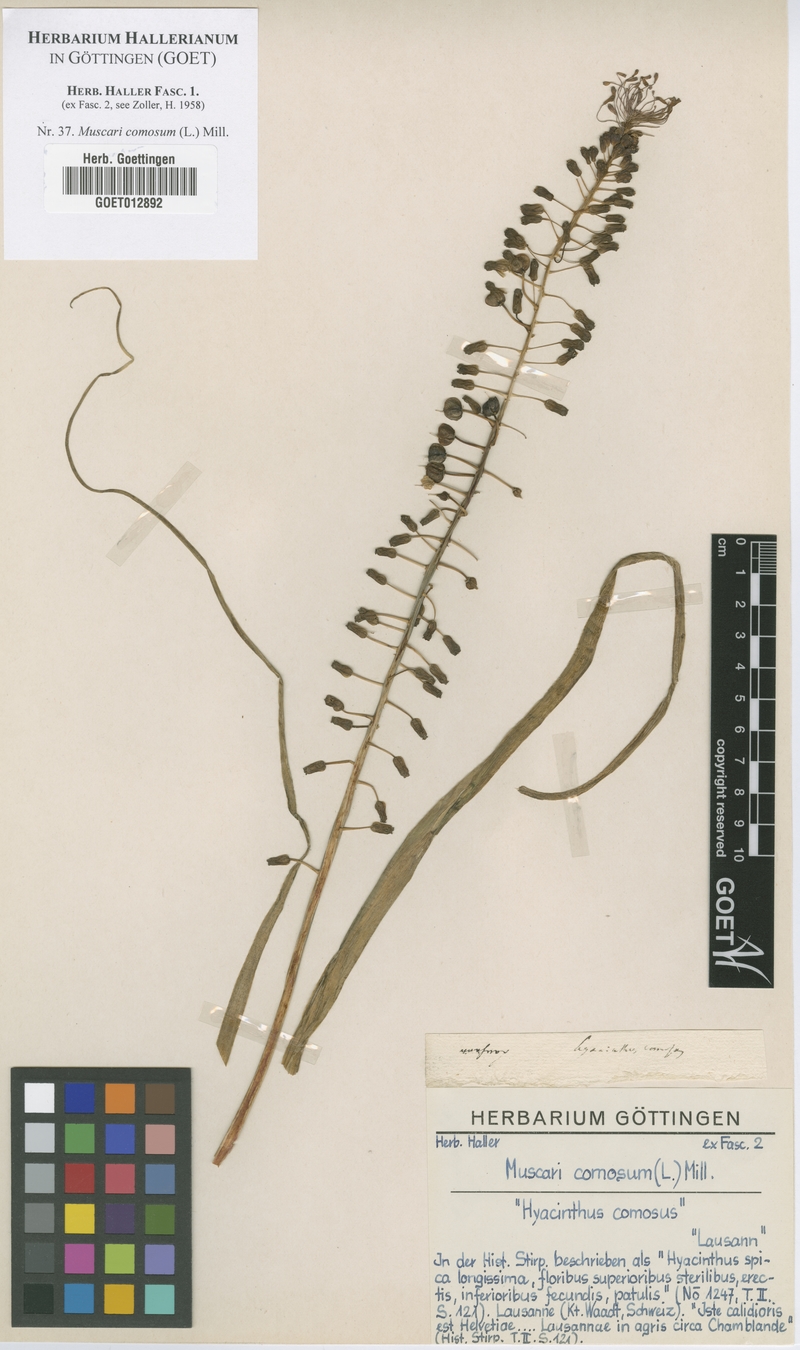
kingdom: Plantae
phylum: Tracheophyta
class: Liliopsida
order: Asparagales
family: Asparagaceae
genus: Muscari
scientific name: Muscari comosum
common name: Tassel hyacinth
